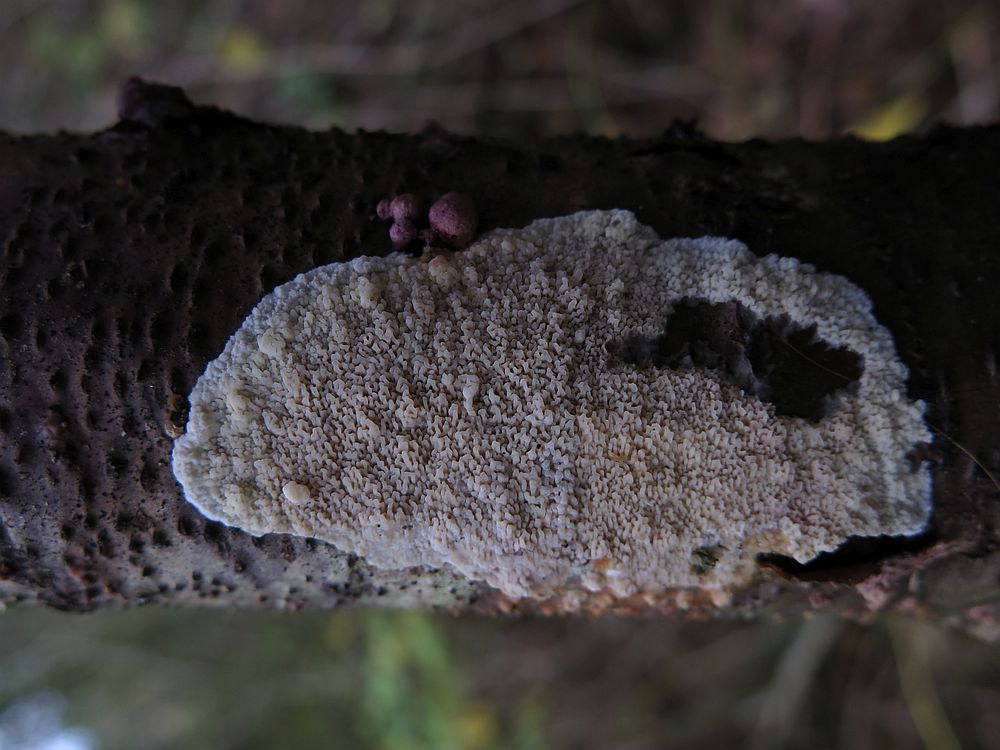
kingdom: Fungi
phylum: Basidiomycota
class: Agaricomycetes
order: Polyporales
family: Meruliaceae
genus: Phlebia
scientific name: Phlebia rufa
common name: ege-åresvamp
